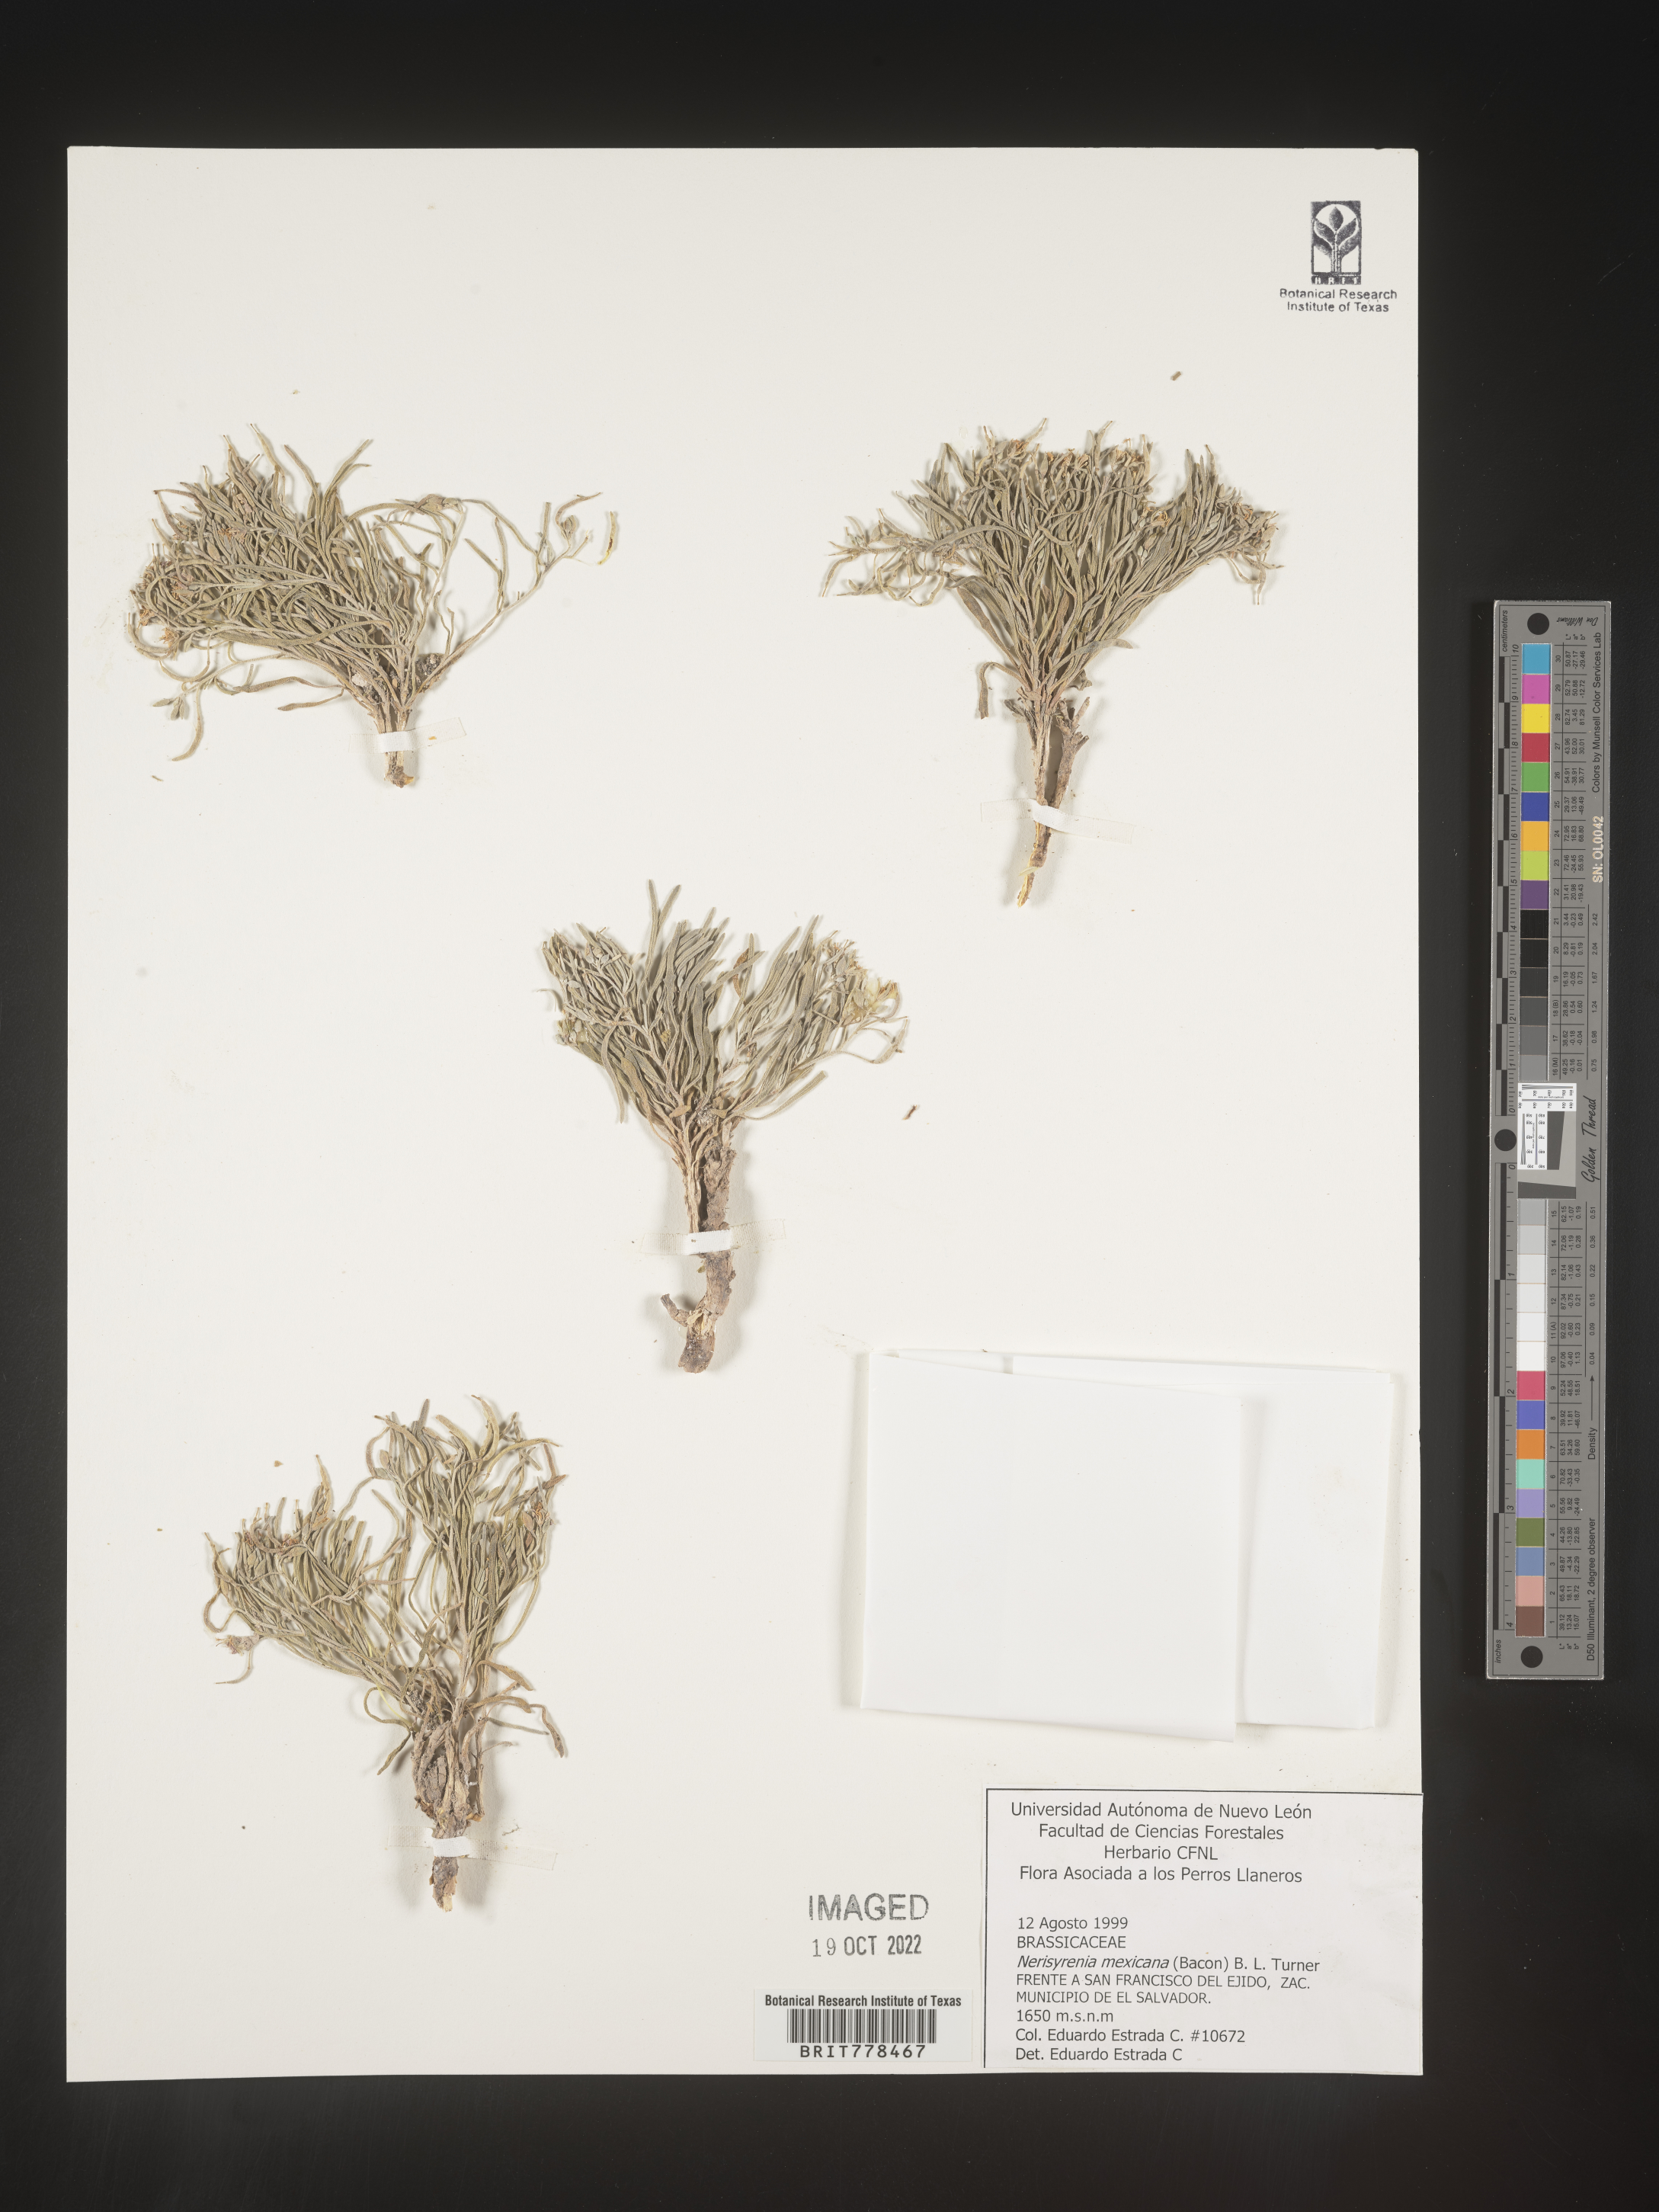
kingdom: Plantae
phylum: Tracheophyta
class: Magnoliopsida
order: Brassicales
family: Brassicaceae
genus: Nerisyrenia
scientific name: Nerisyrenia
